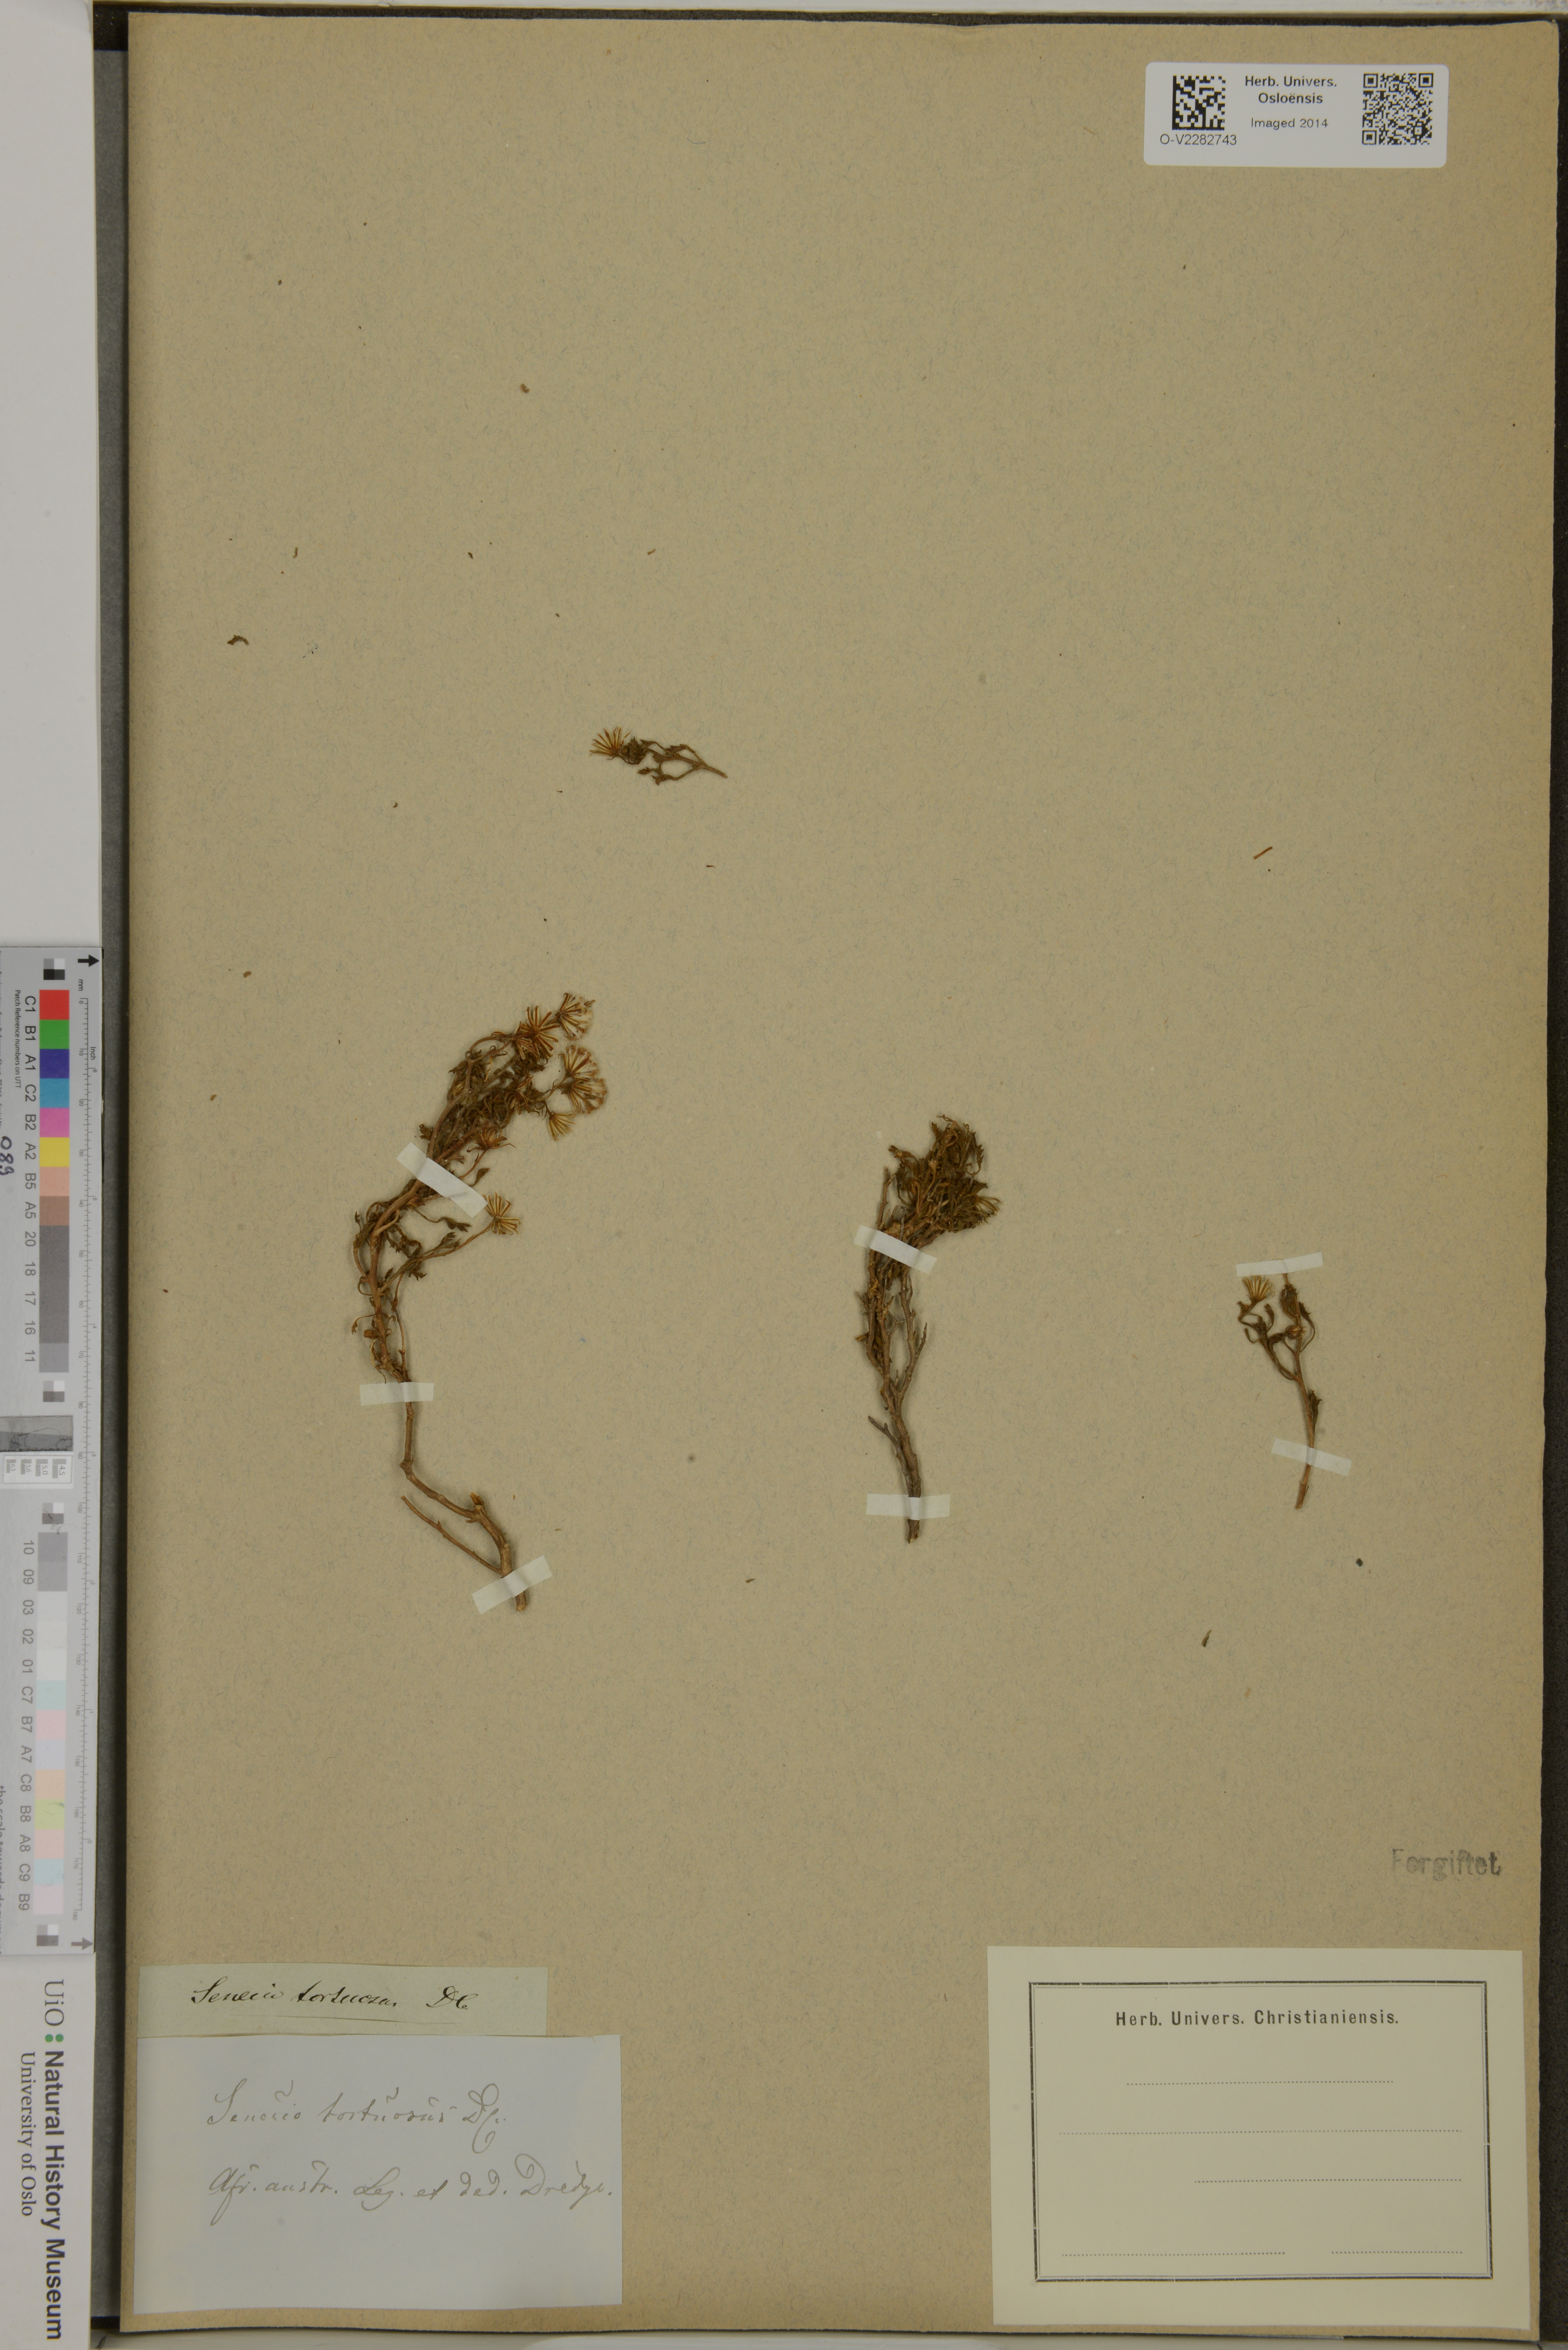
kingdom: Plantae
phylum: Tracheophyta
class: Magnoliopsida
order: Asterales
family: Asteraceae
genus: Senecio
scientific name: Senecio tortuosus
